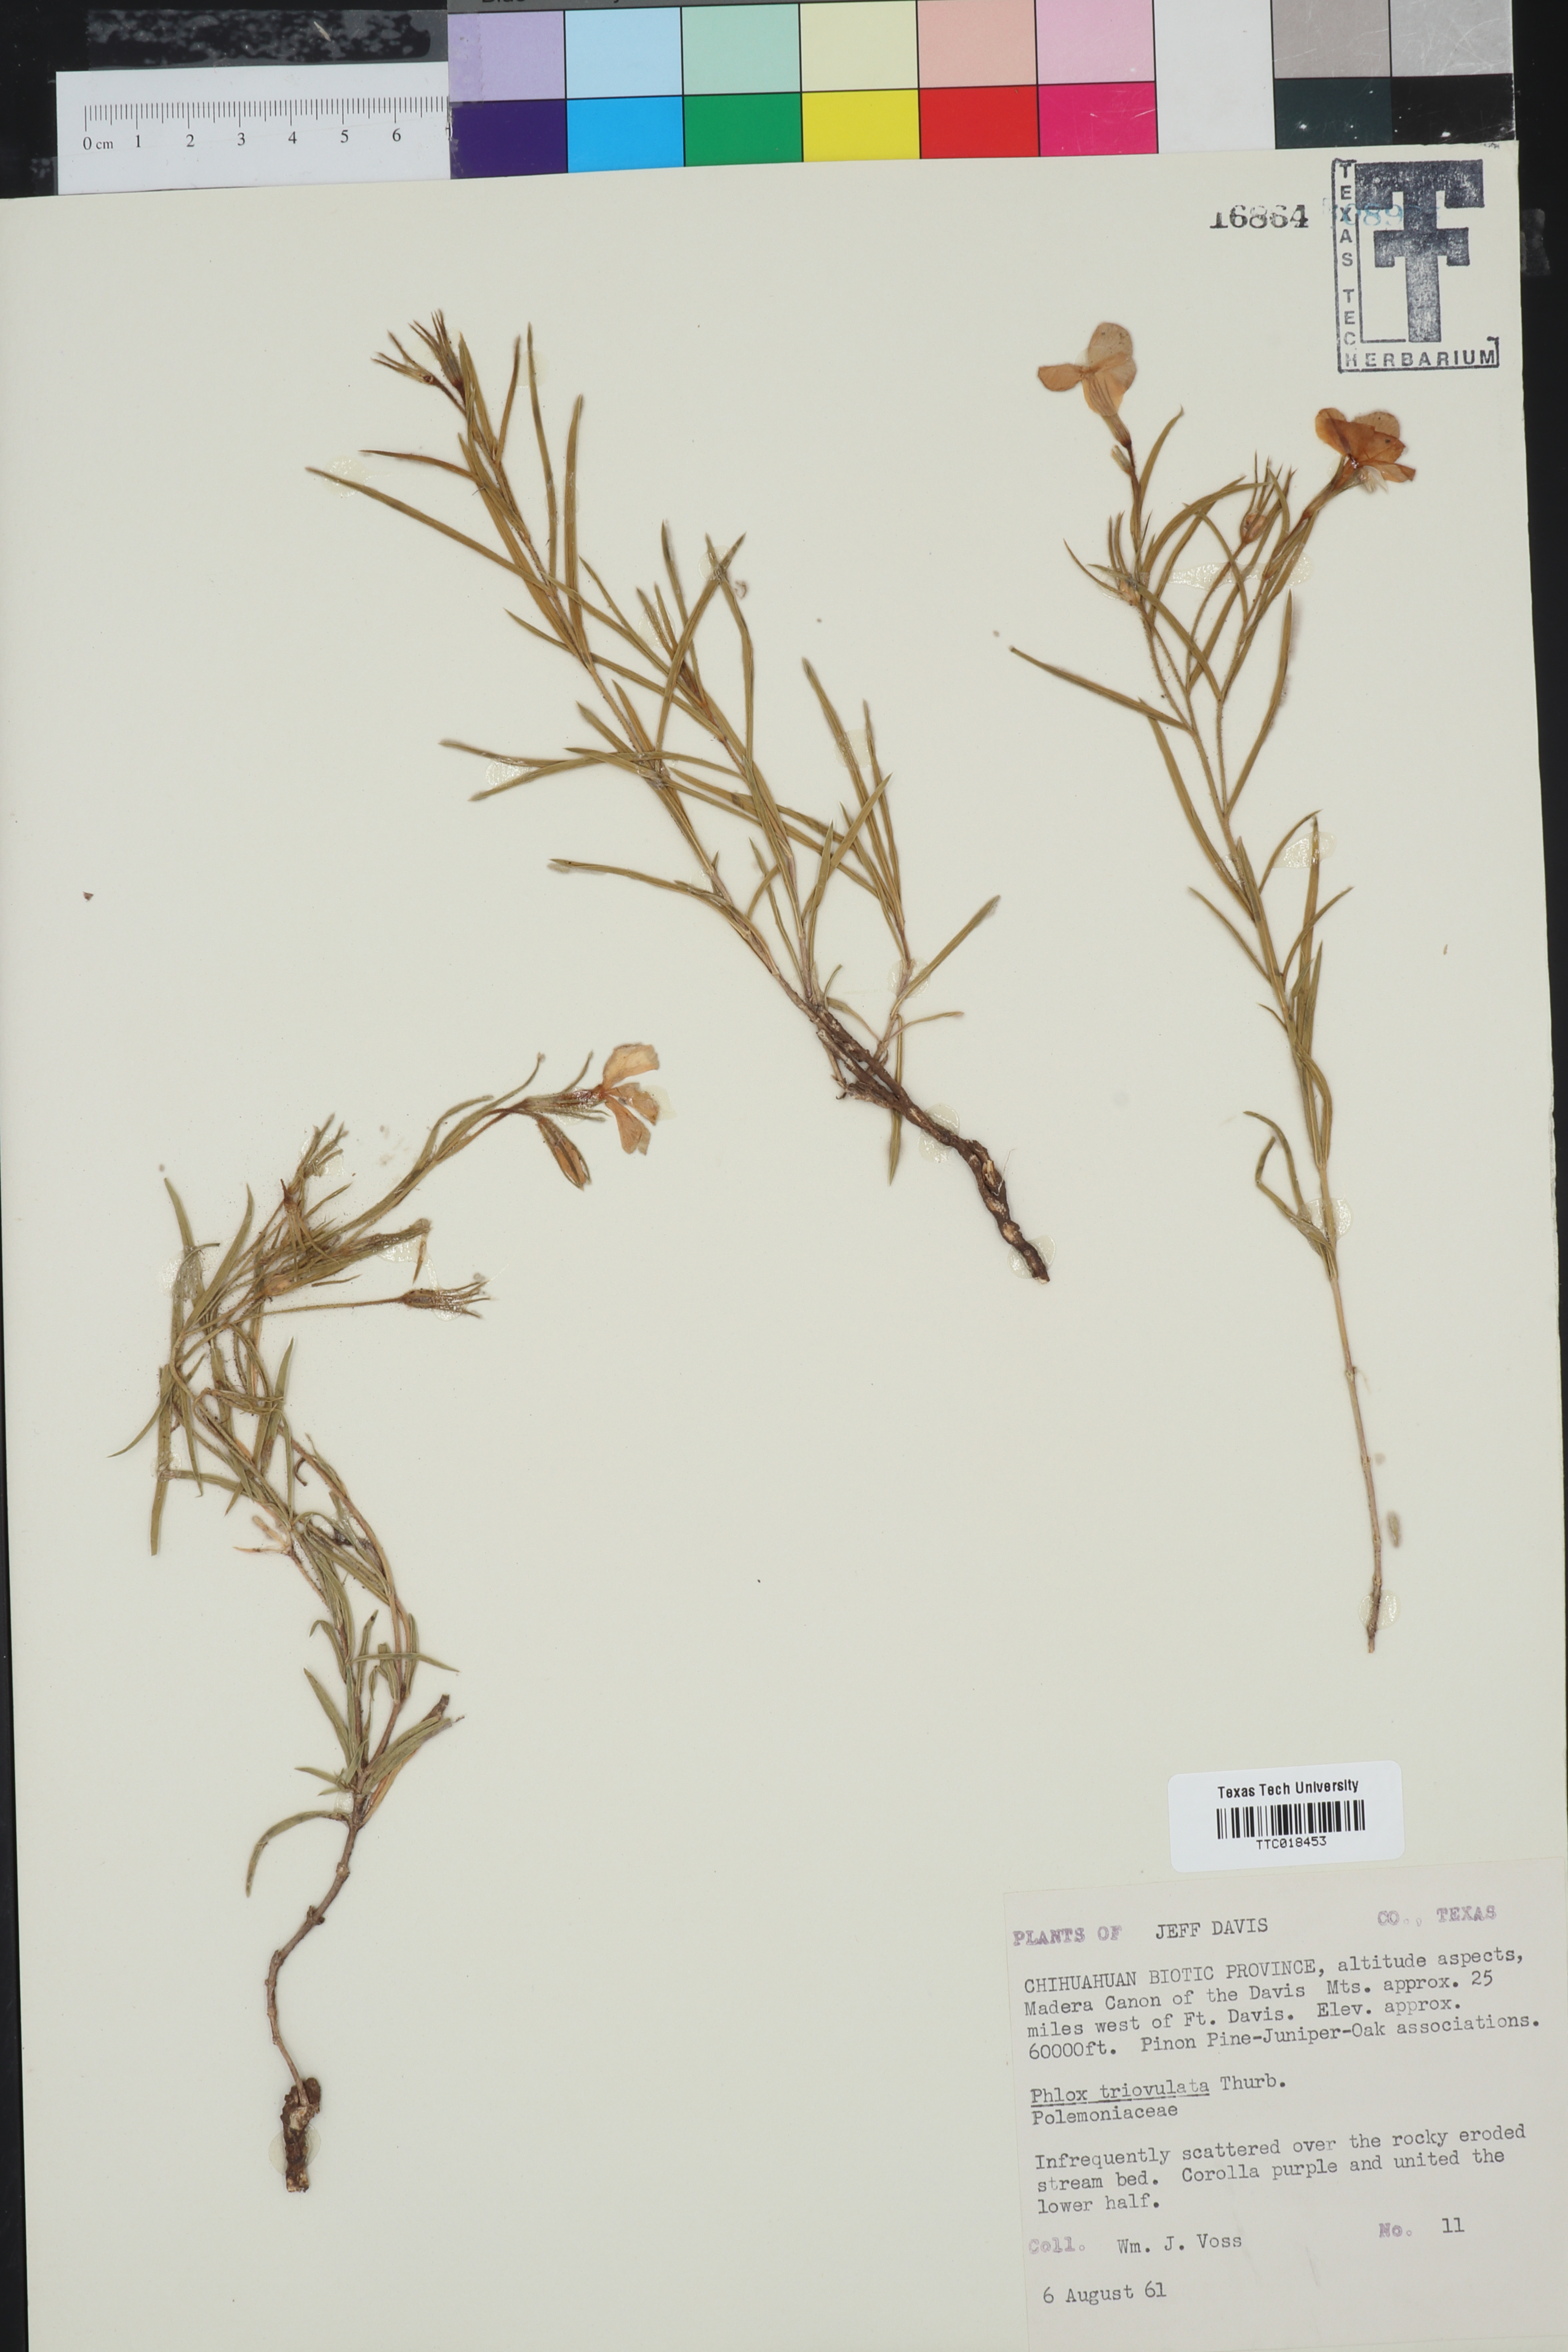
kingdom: Plantae
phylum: Tracheophyta
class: Magnoliopsida
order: Ericales
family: Polemoniaceae
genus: Phlox
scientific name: Phlox triovulata
